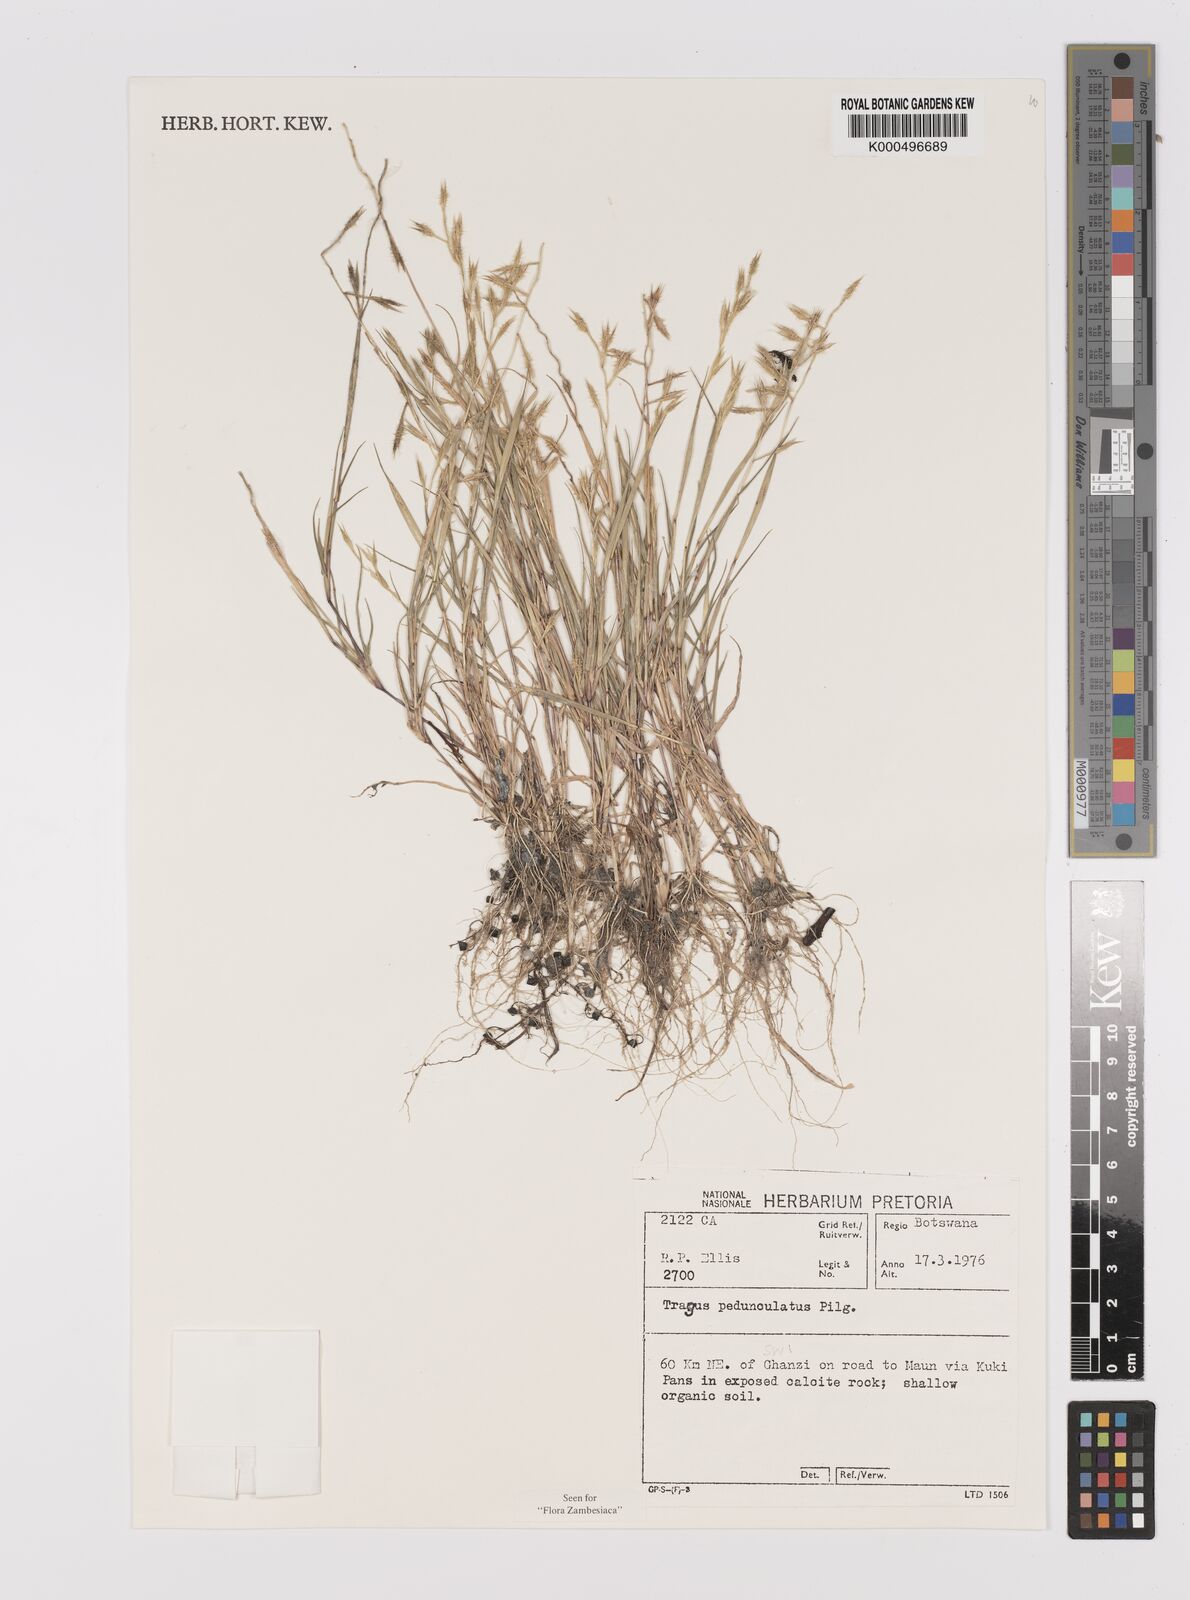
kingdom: Plantae
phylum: Tracheophyta
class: Liliopsida
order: Poales
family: Poaceae
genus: Orthacanthus
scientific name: Orthacanthus pedunculatus
